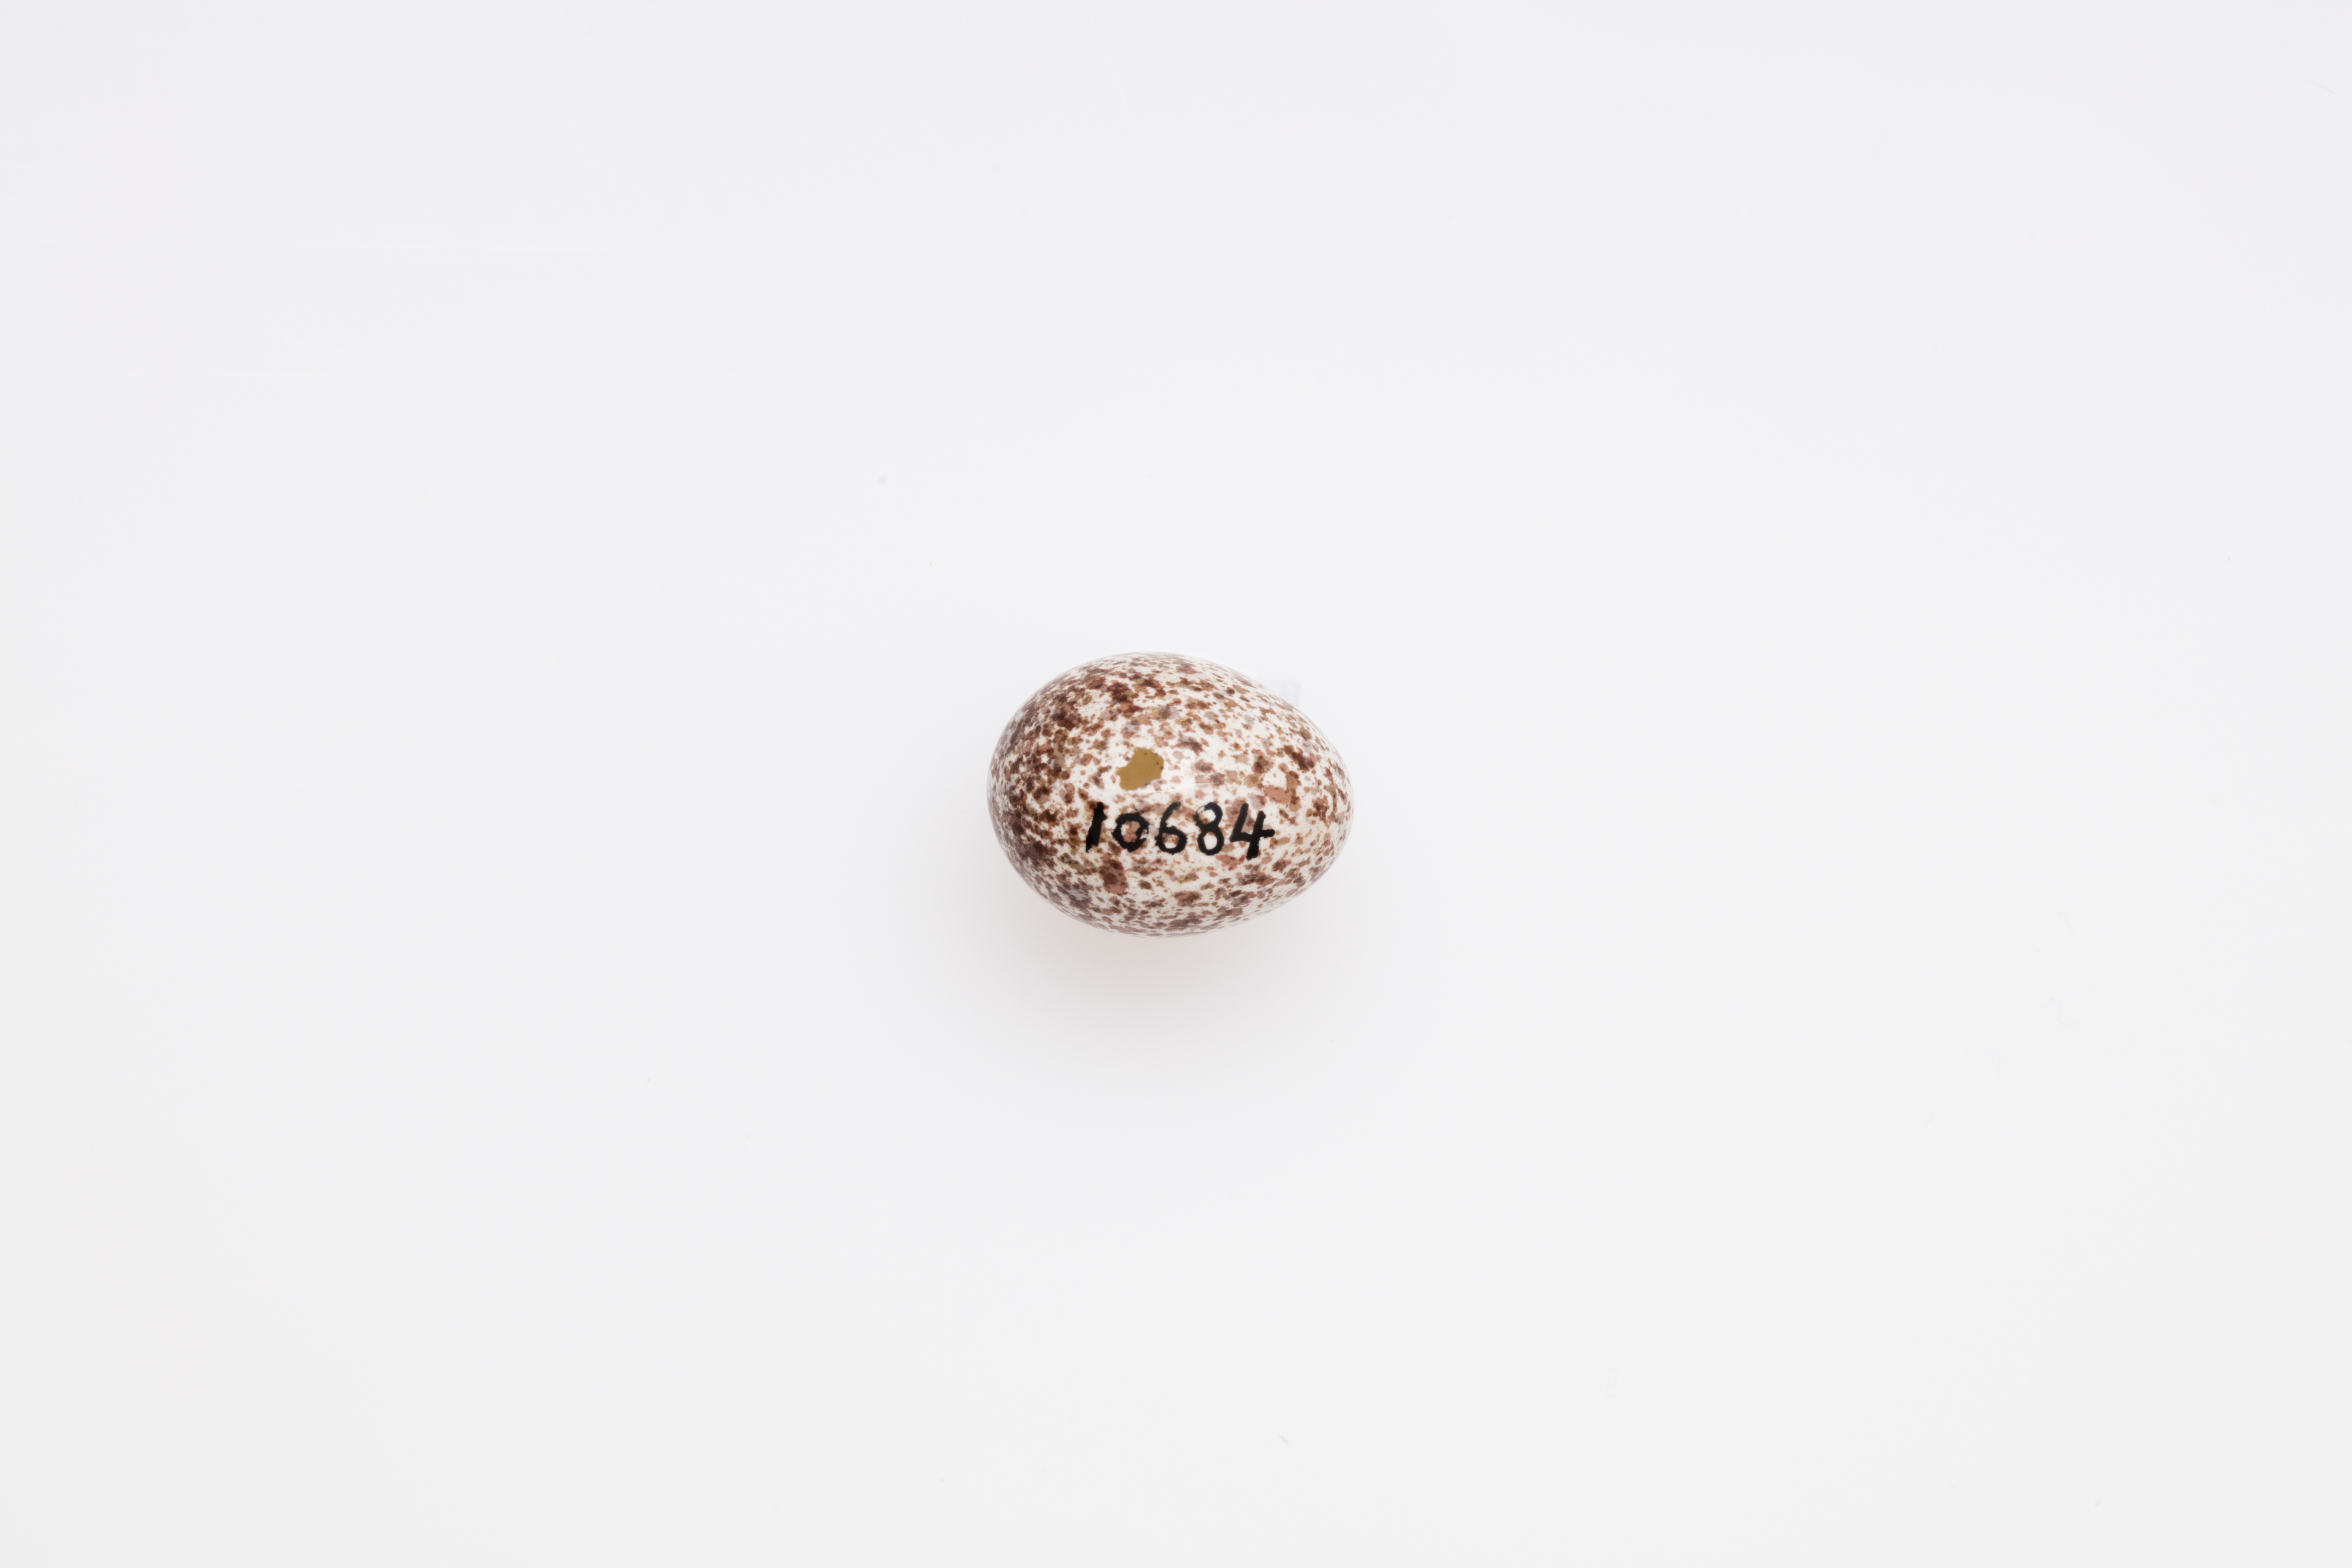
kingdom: Animalia
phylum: Chordata
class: Aves
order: Passeriformes
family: Phylloscopidae
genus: Phylloscopus
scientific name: Phylloscopus sibillatrix
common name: Wood warbler
